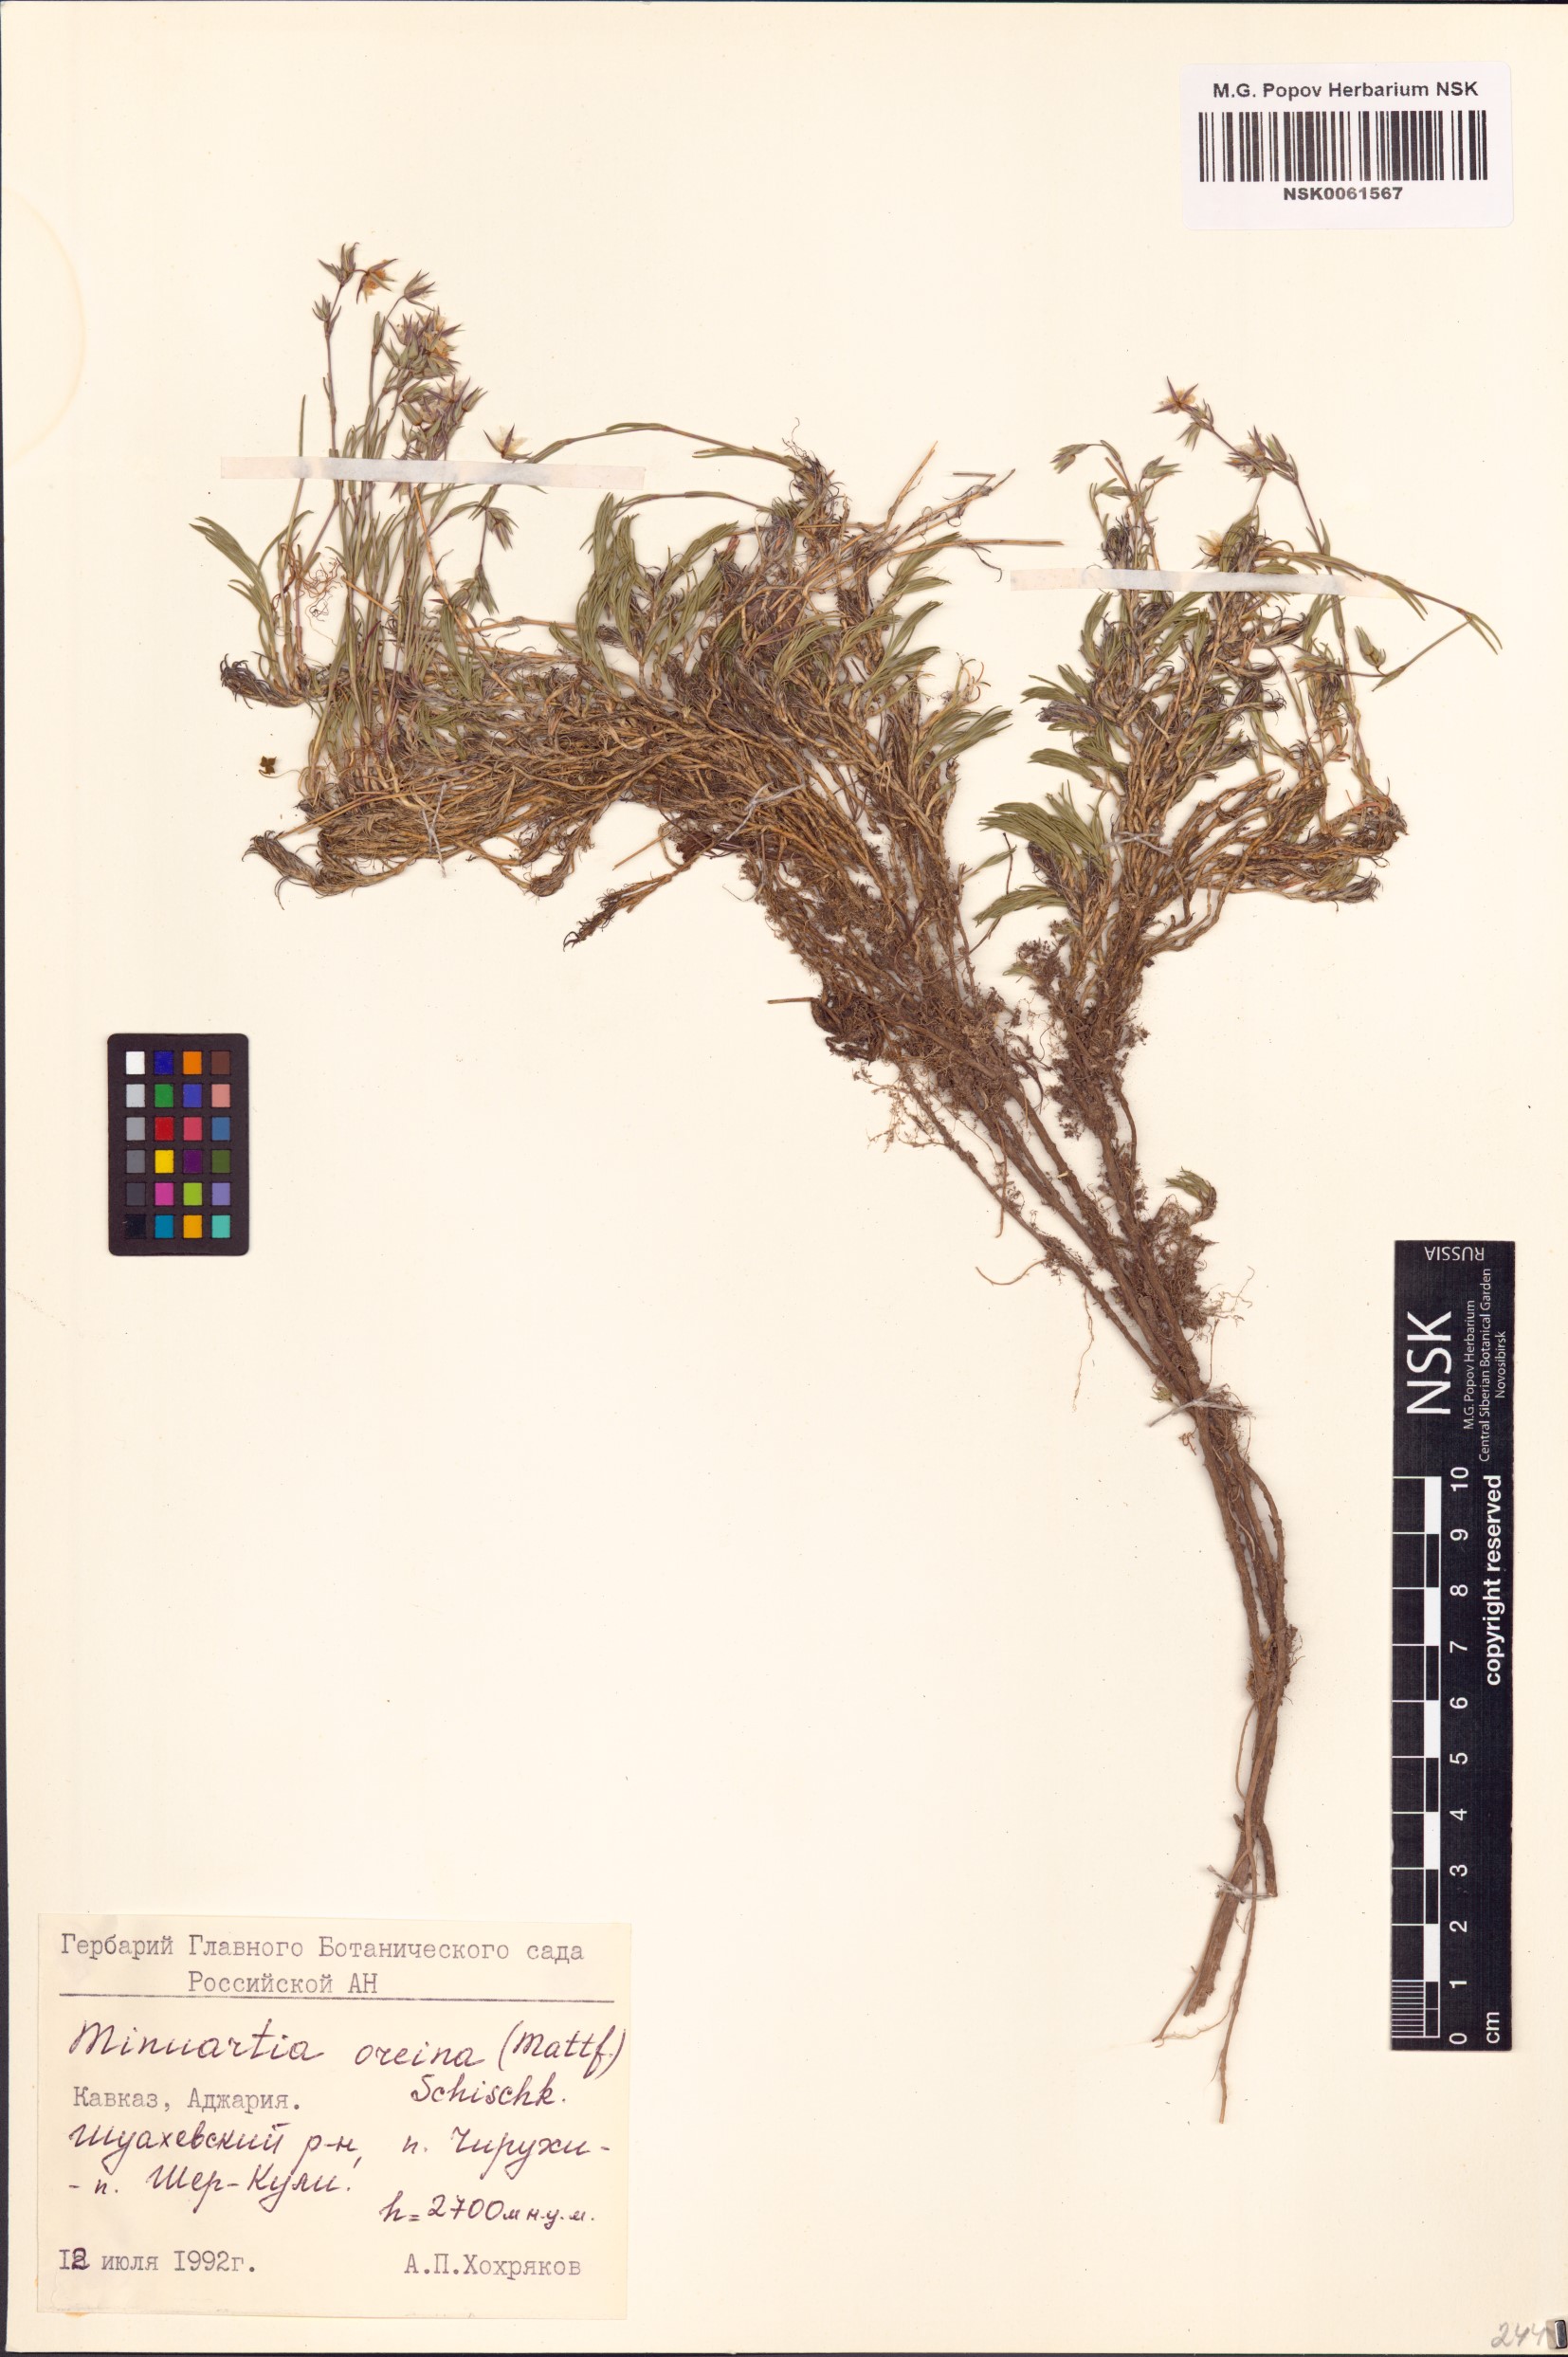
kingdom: Plantae
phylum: Tracheophyta
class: Magnoliopsida
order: Caryophyllales
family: Caryophyllaceae
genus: Minuartia
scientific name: Minuartia hirsuta
